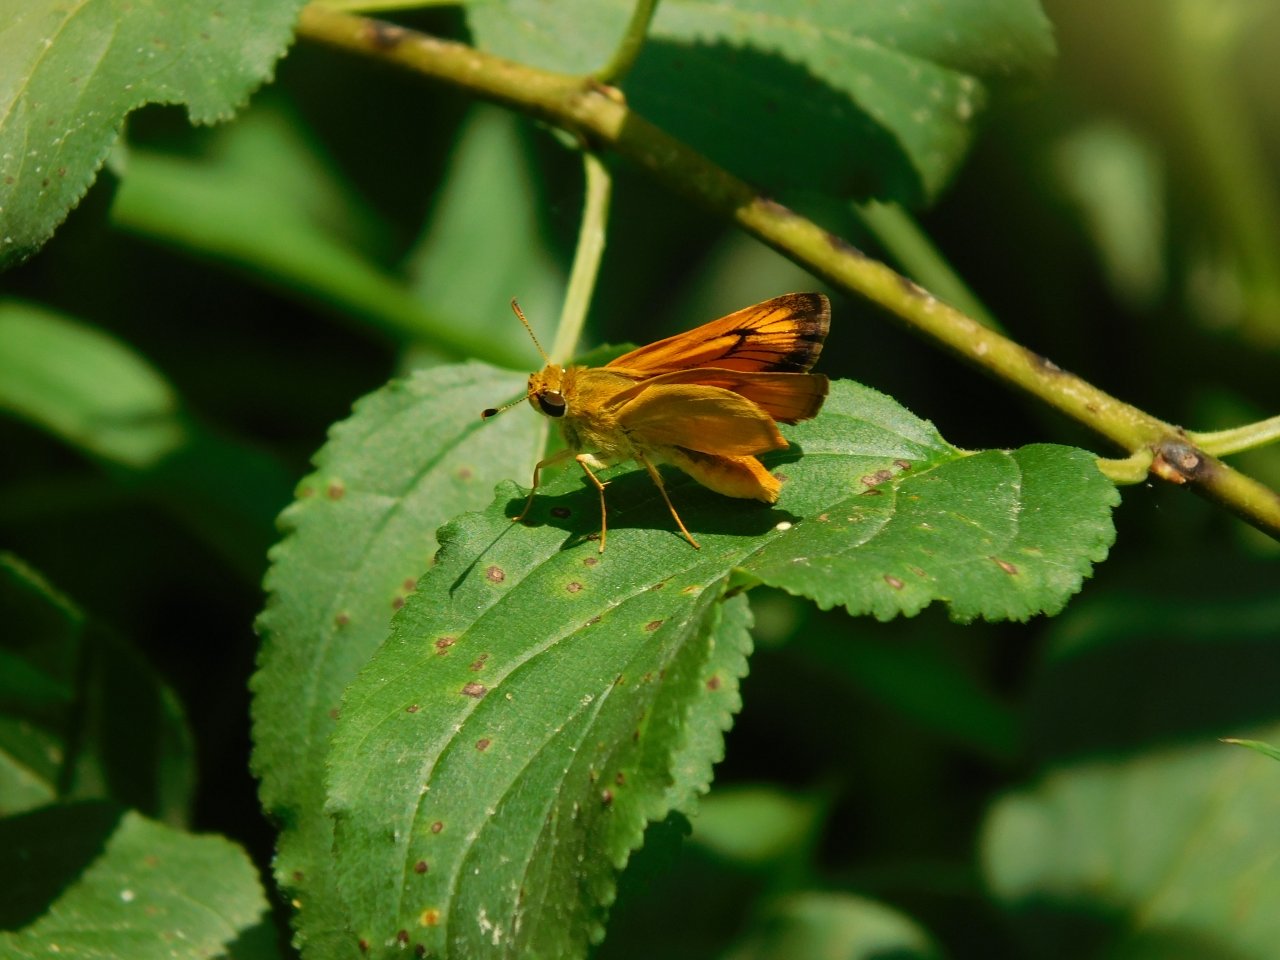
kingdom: Animalia
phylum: Arthropoda
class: Insecta
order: Lepidoptera
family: Hesperiidae
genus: Atrytone
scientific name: Atrytone delaware
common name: Delaware Skipper
